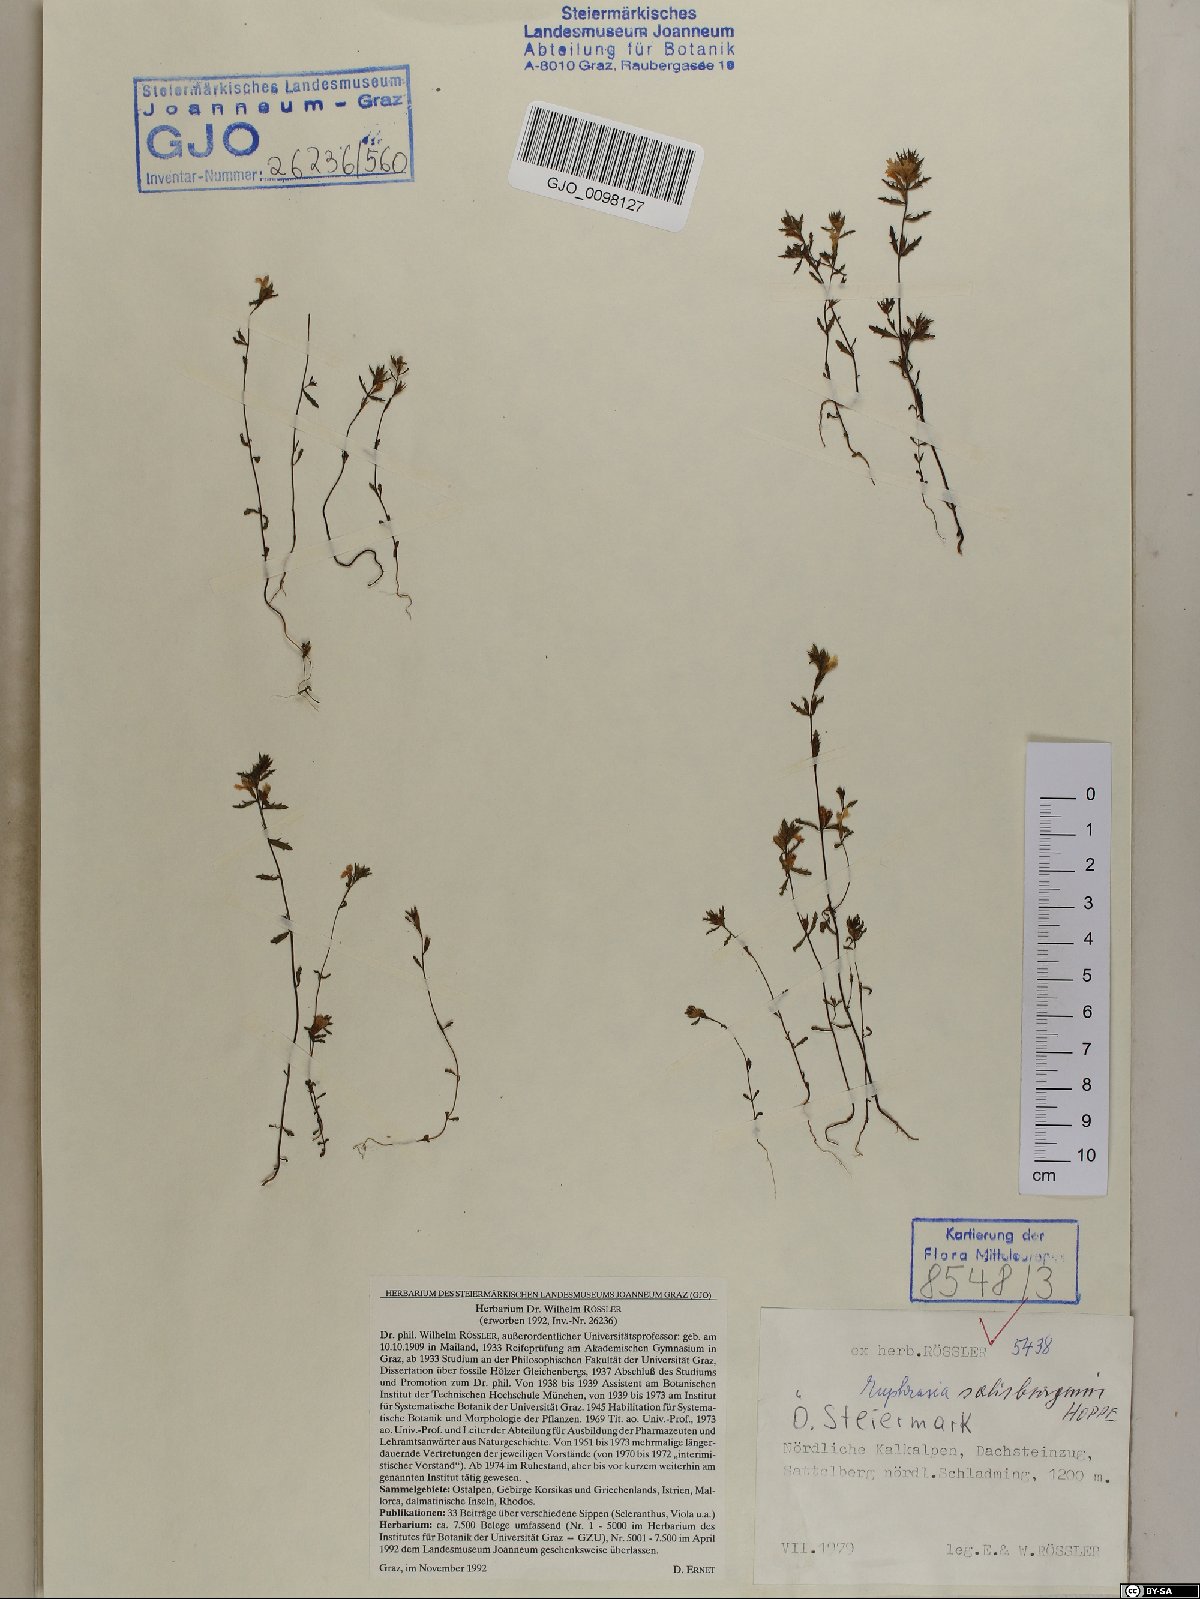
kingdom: Plantae
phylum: Tracheophyta
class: Magnoliopsida
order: Lamiales
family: Orobanchaceae
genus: Euphrasia
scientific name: Euphrasia salisburgensis
